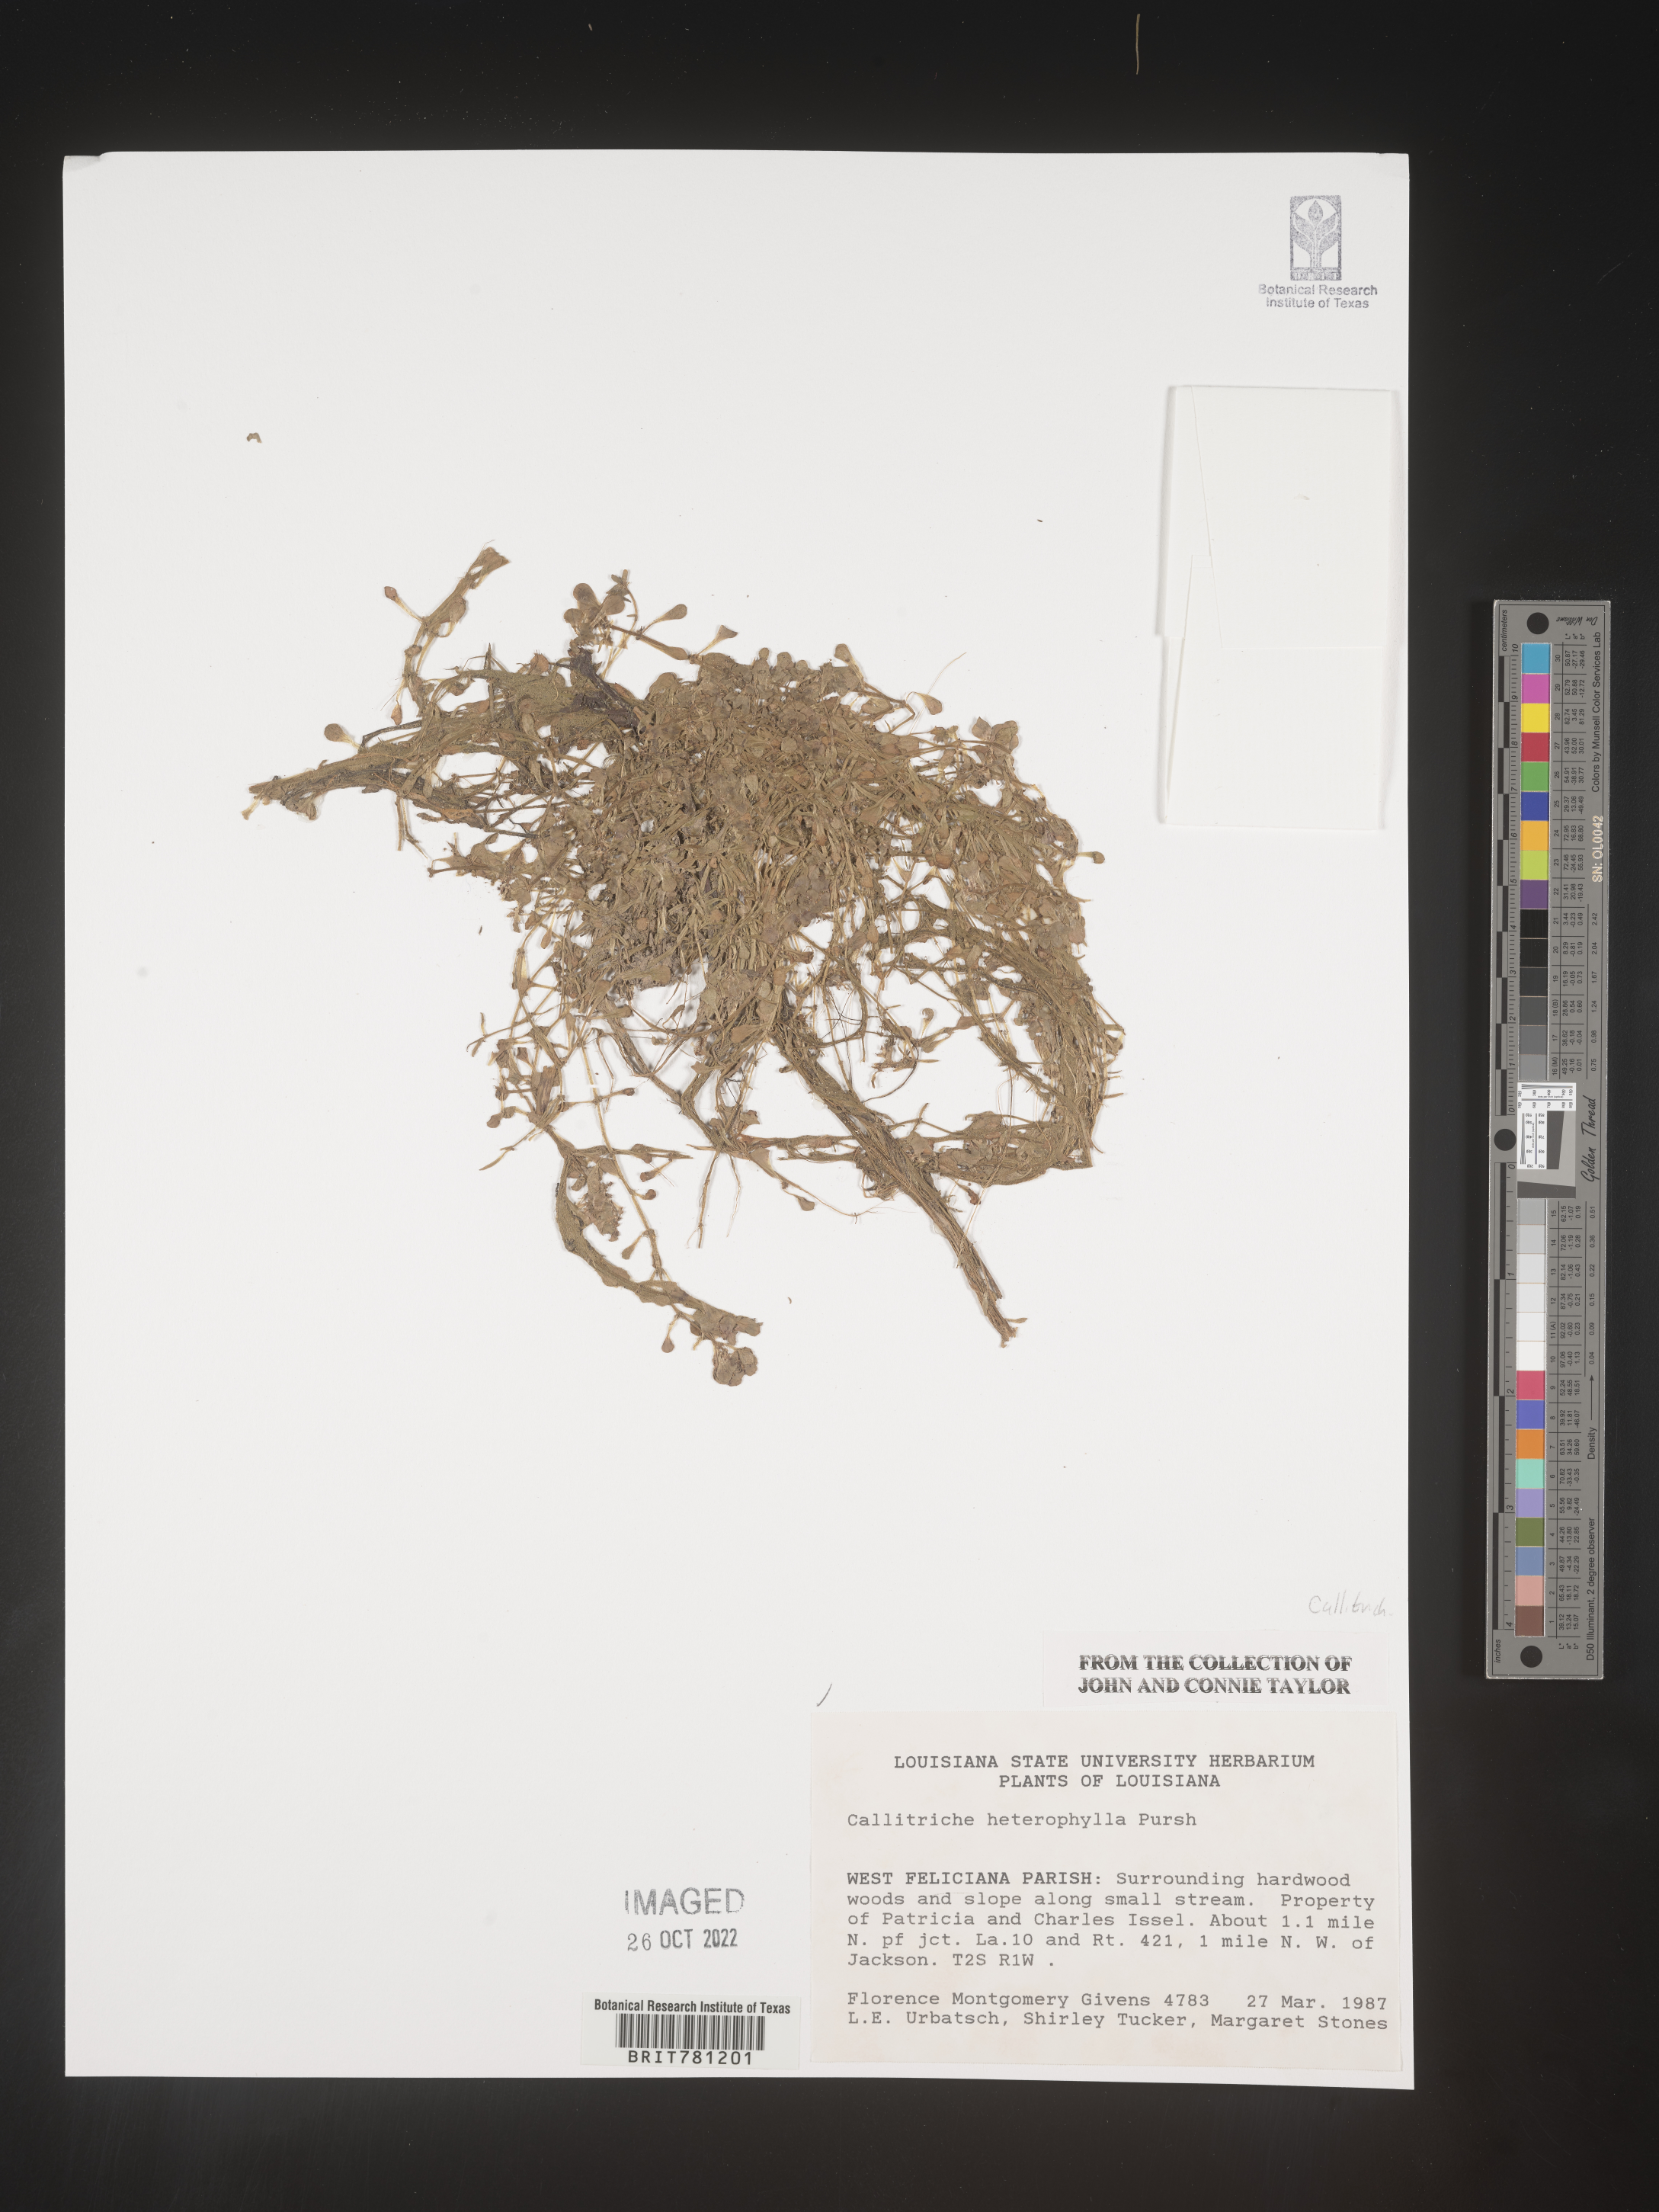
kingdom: Plantae
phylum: Tracheophyta
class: Magnoliopsida
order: Lamiales
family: Plantaginaceae
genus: Callitriche
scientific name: Callitriche heterophylla
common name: Two-headed water-starwort
